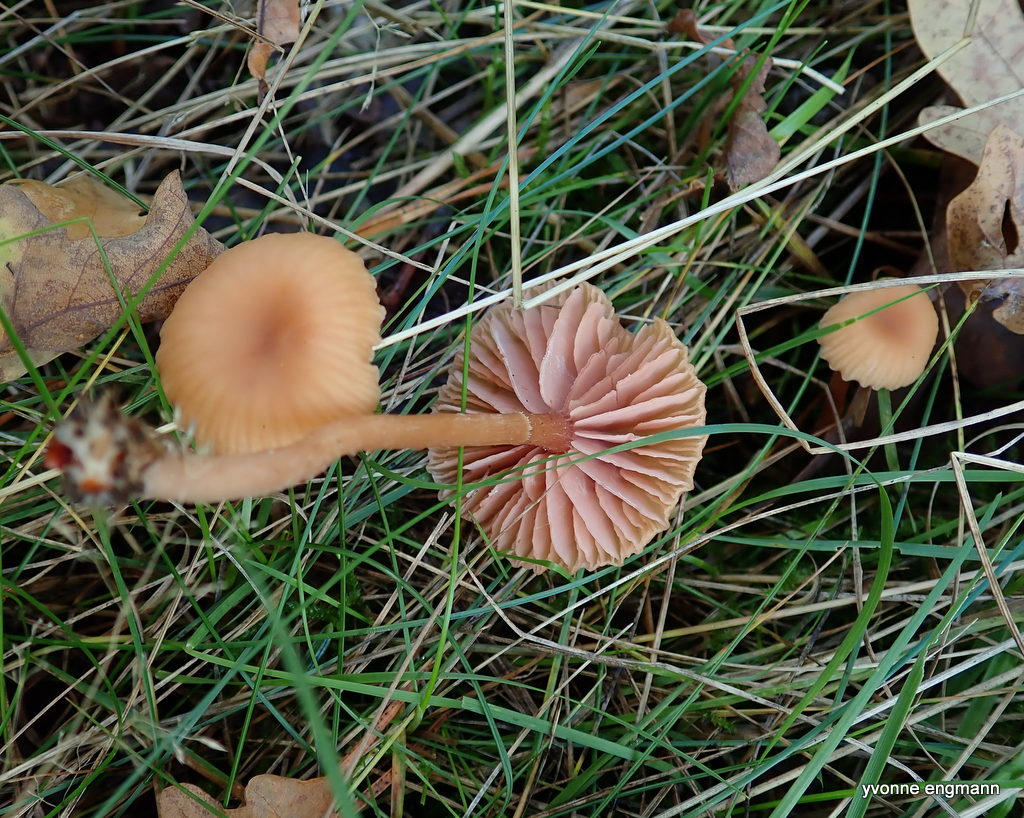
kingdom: Fungi
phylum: Basidiomycota
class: Agaricomycetes
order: Agaricales
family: Hydnangiaceae
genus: Laccaria
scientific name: Laccaria laccata
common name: rød ametysthat
